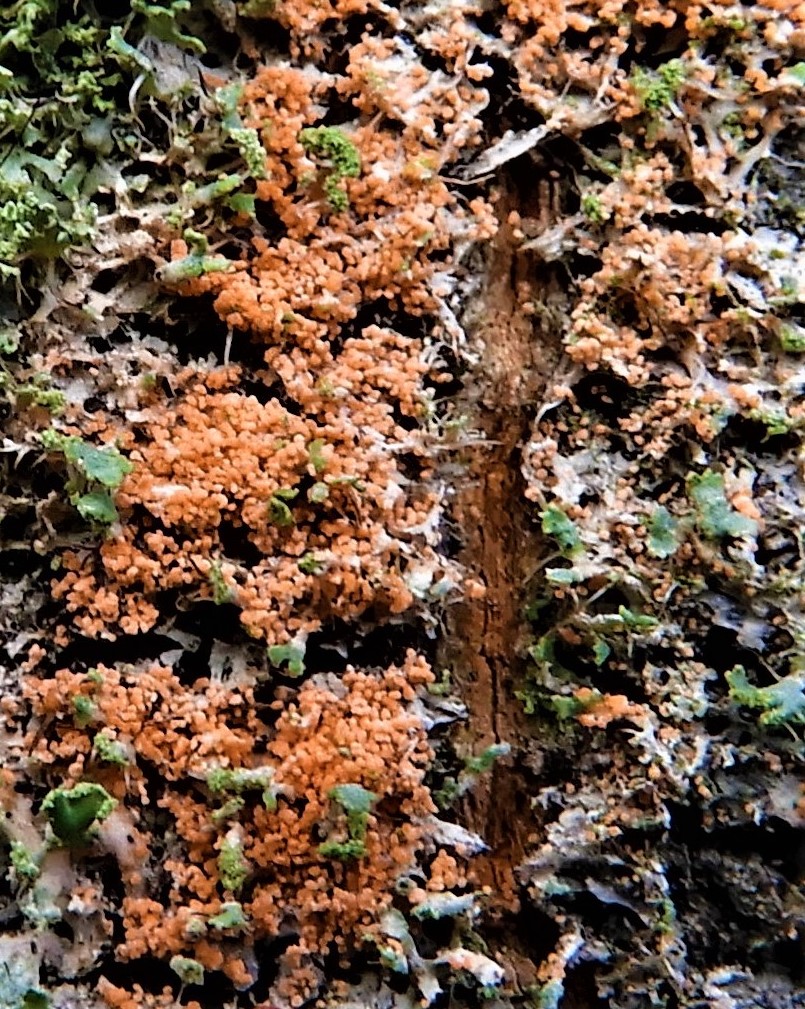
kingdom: Fungi
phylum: Basidiomycota
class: Agaricomycetes
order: Corticiales
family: Corticiaceae
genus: Erythricium
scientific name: Erythricium aurantiacum
